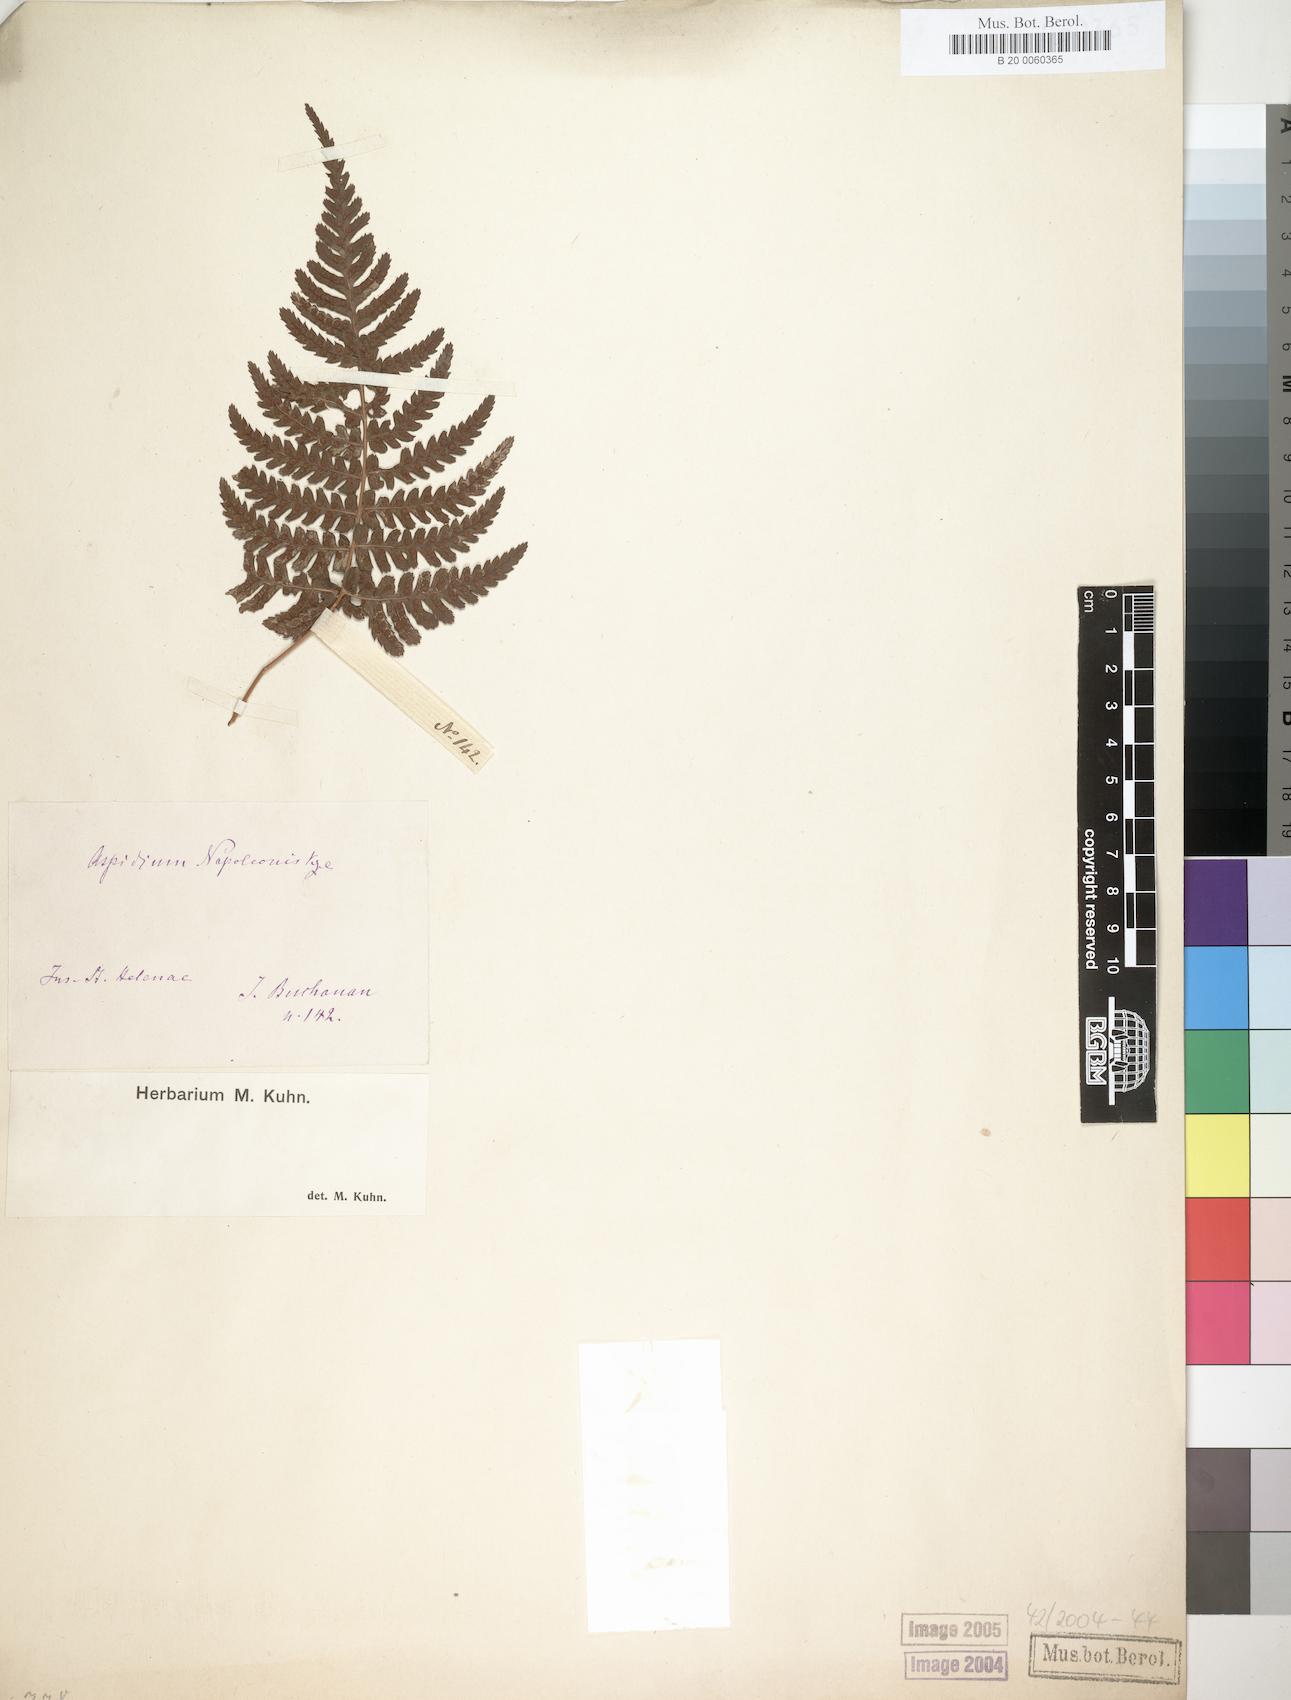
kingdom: Plantae
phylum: Tracheophyta
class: Polypodiopsida
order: Polypodiales
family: Dryopteridaceae
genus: Dryopteris
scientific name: Dryopteris napoleonis
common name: Small kidney fern
